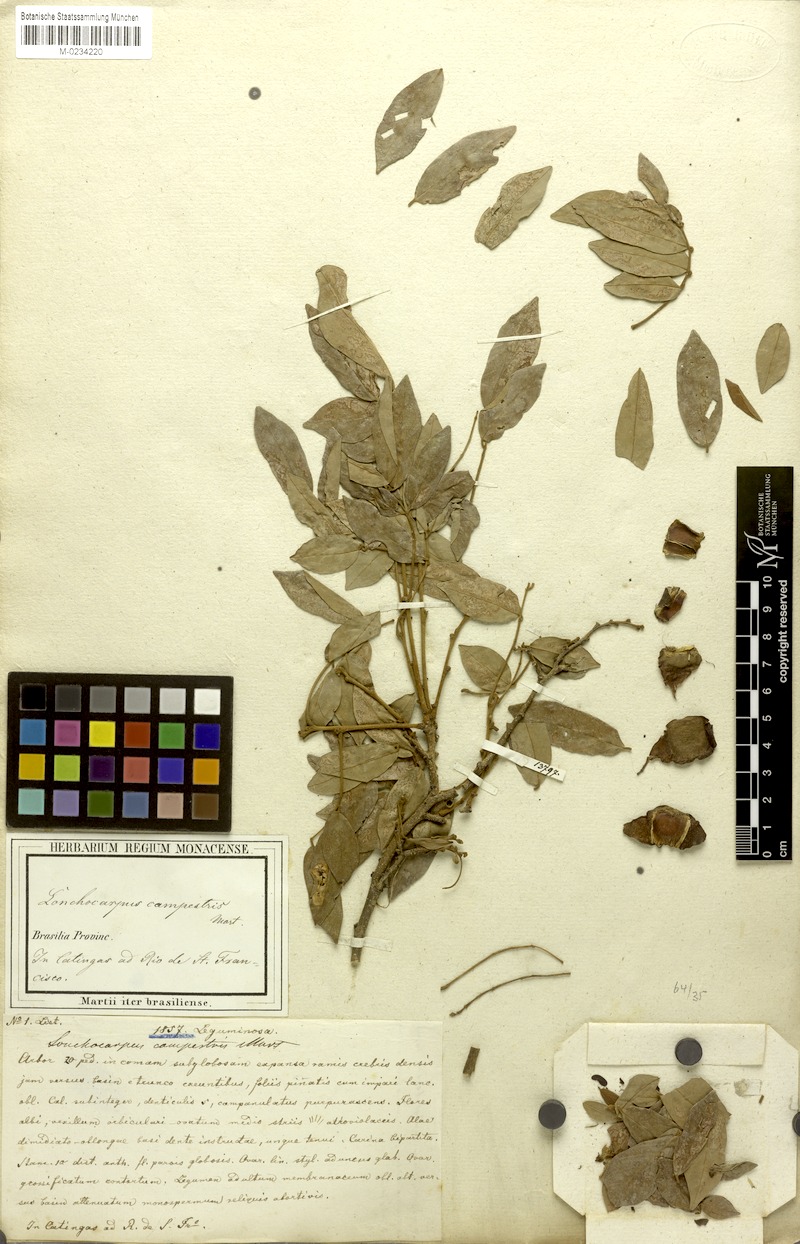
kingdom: Plantae
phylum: Tracheophyta
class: Magnoliopsida
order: Fabales
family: Fabaceae
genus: Muellera
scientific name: Muellera campestris
